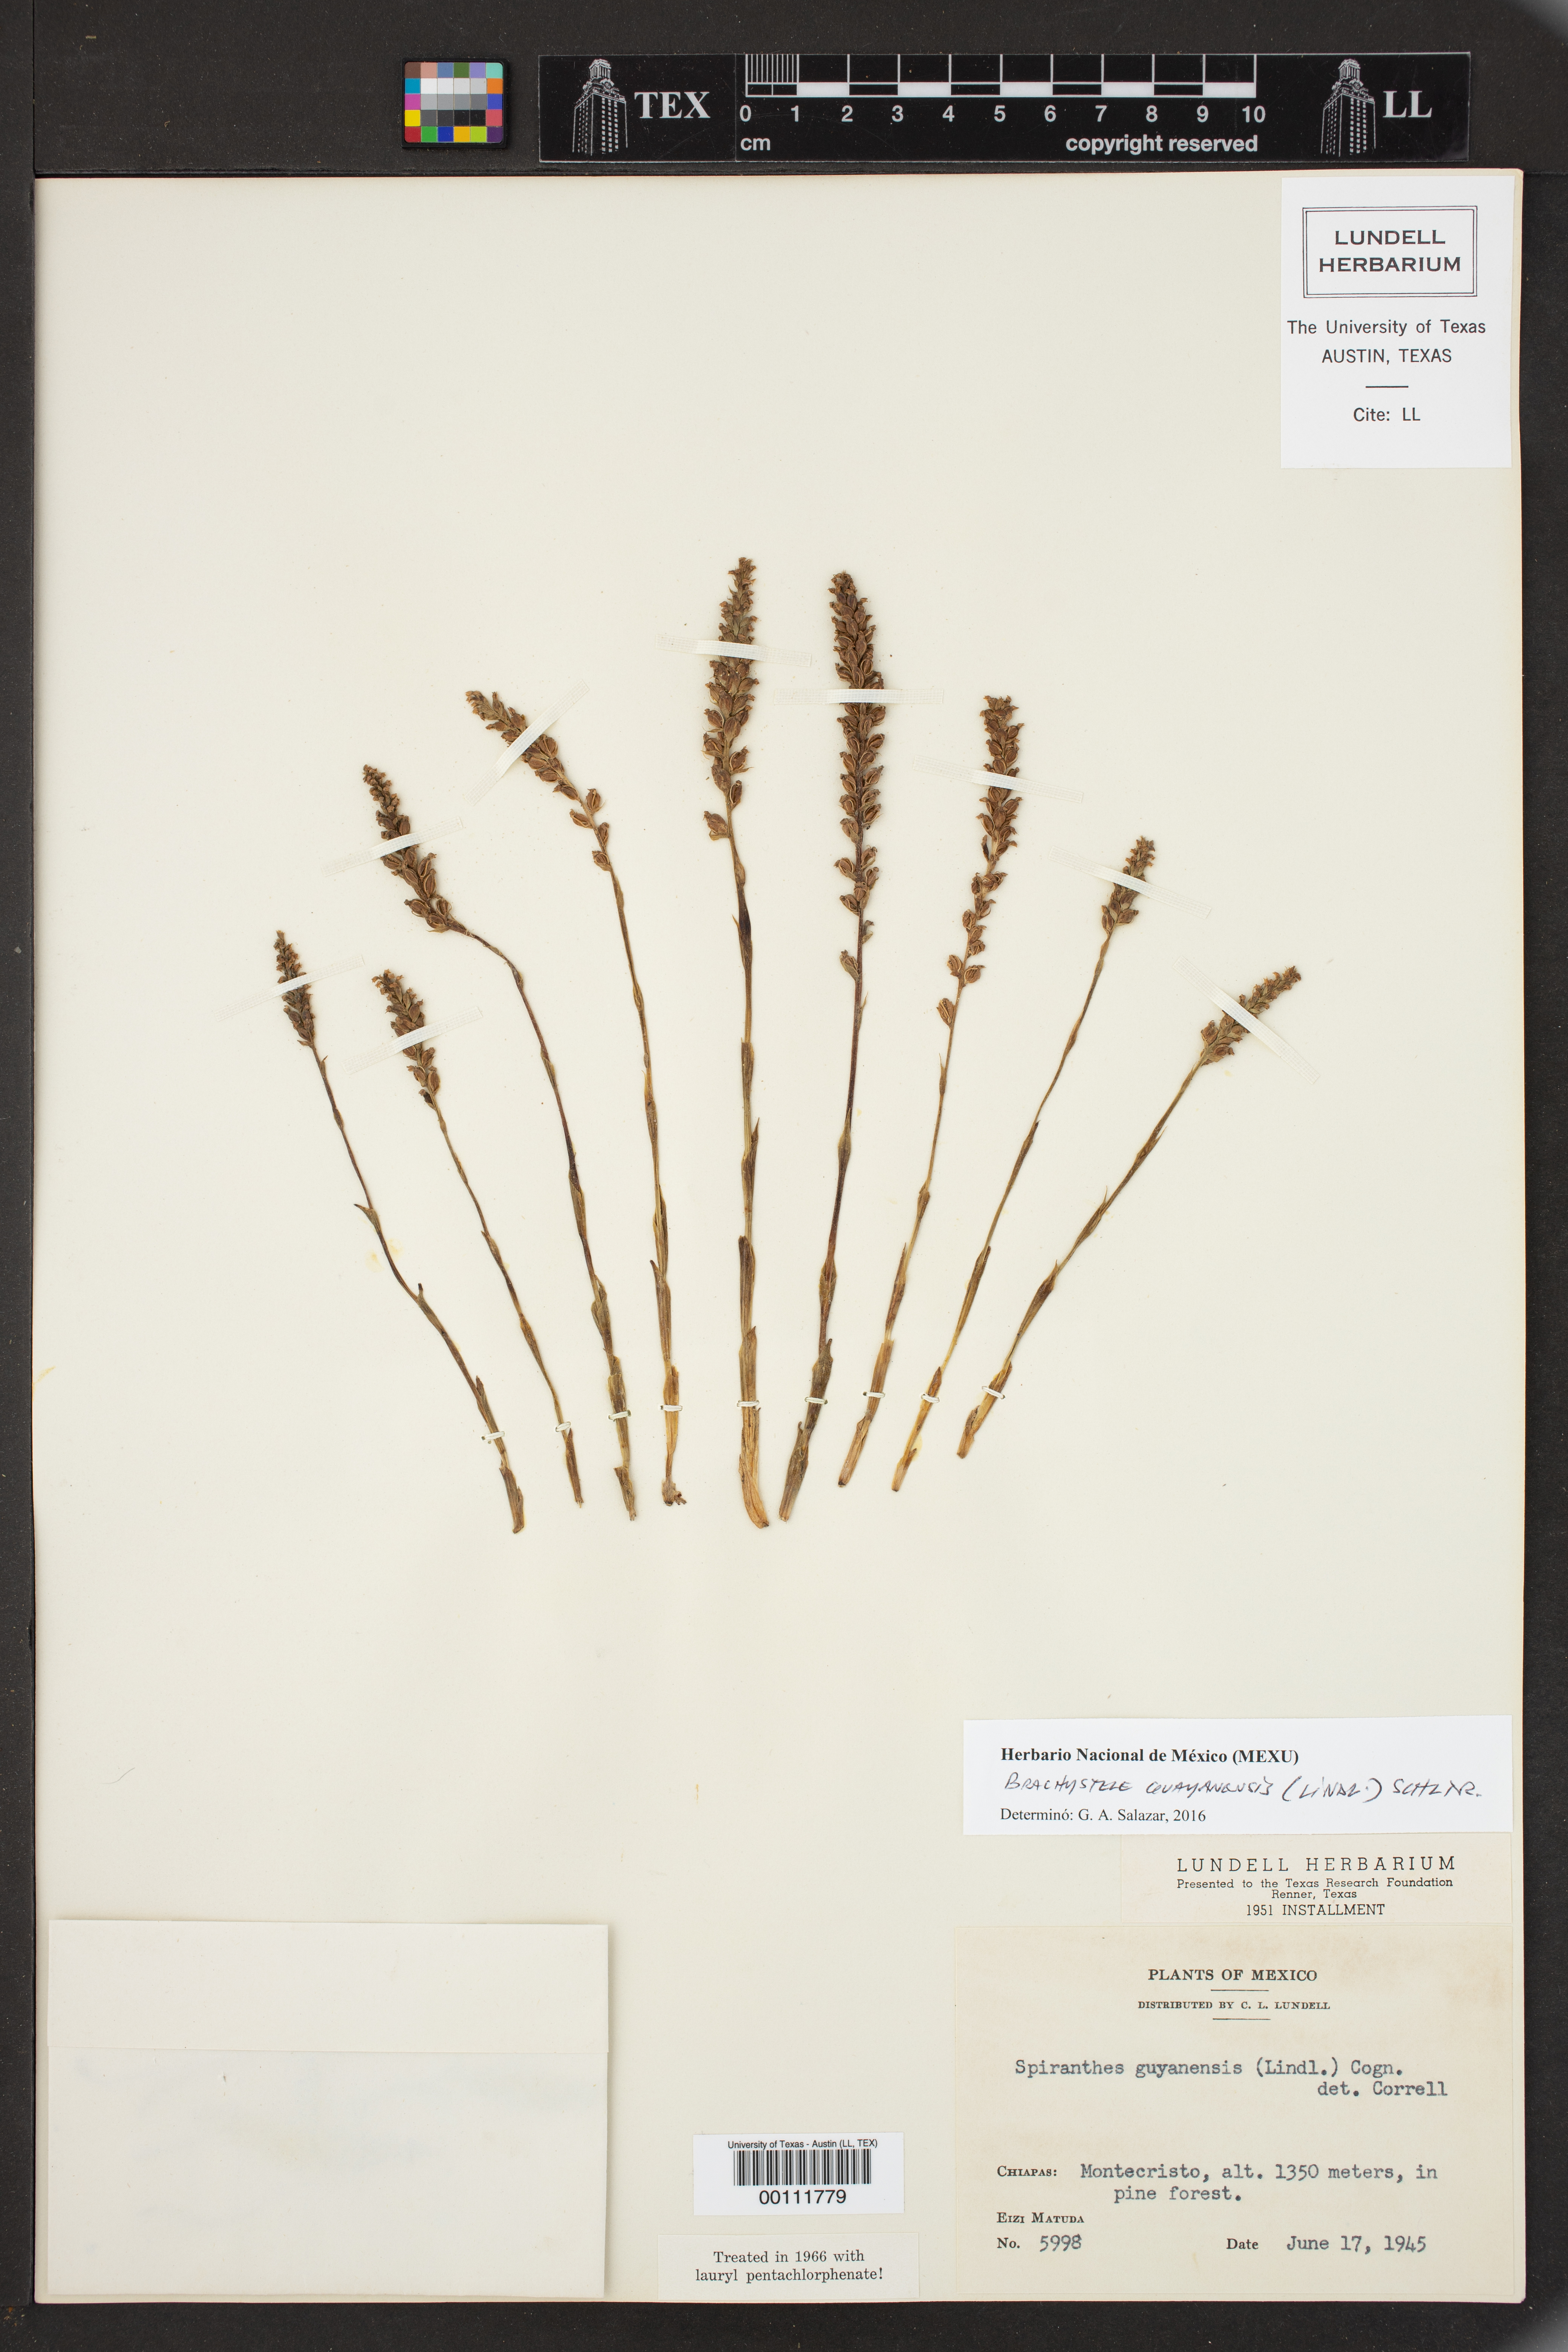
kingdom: Plantae
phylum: Tracheophyta
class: Liliopsida
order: Asparagales
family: Orchidaceae
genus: Brachystele
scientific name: Brachystele guayanensis
